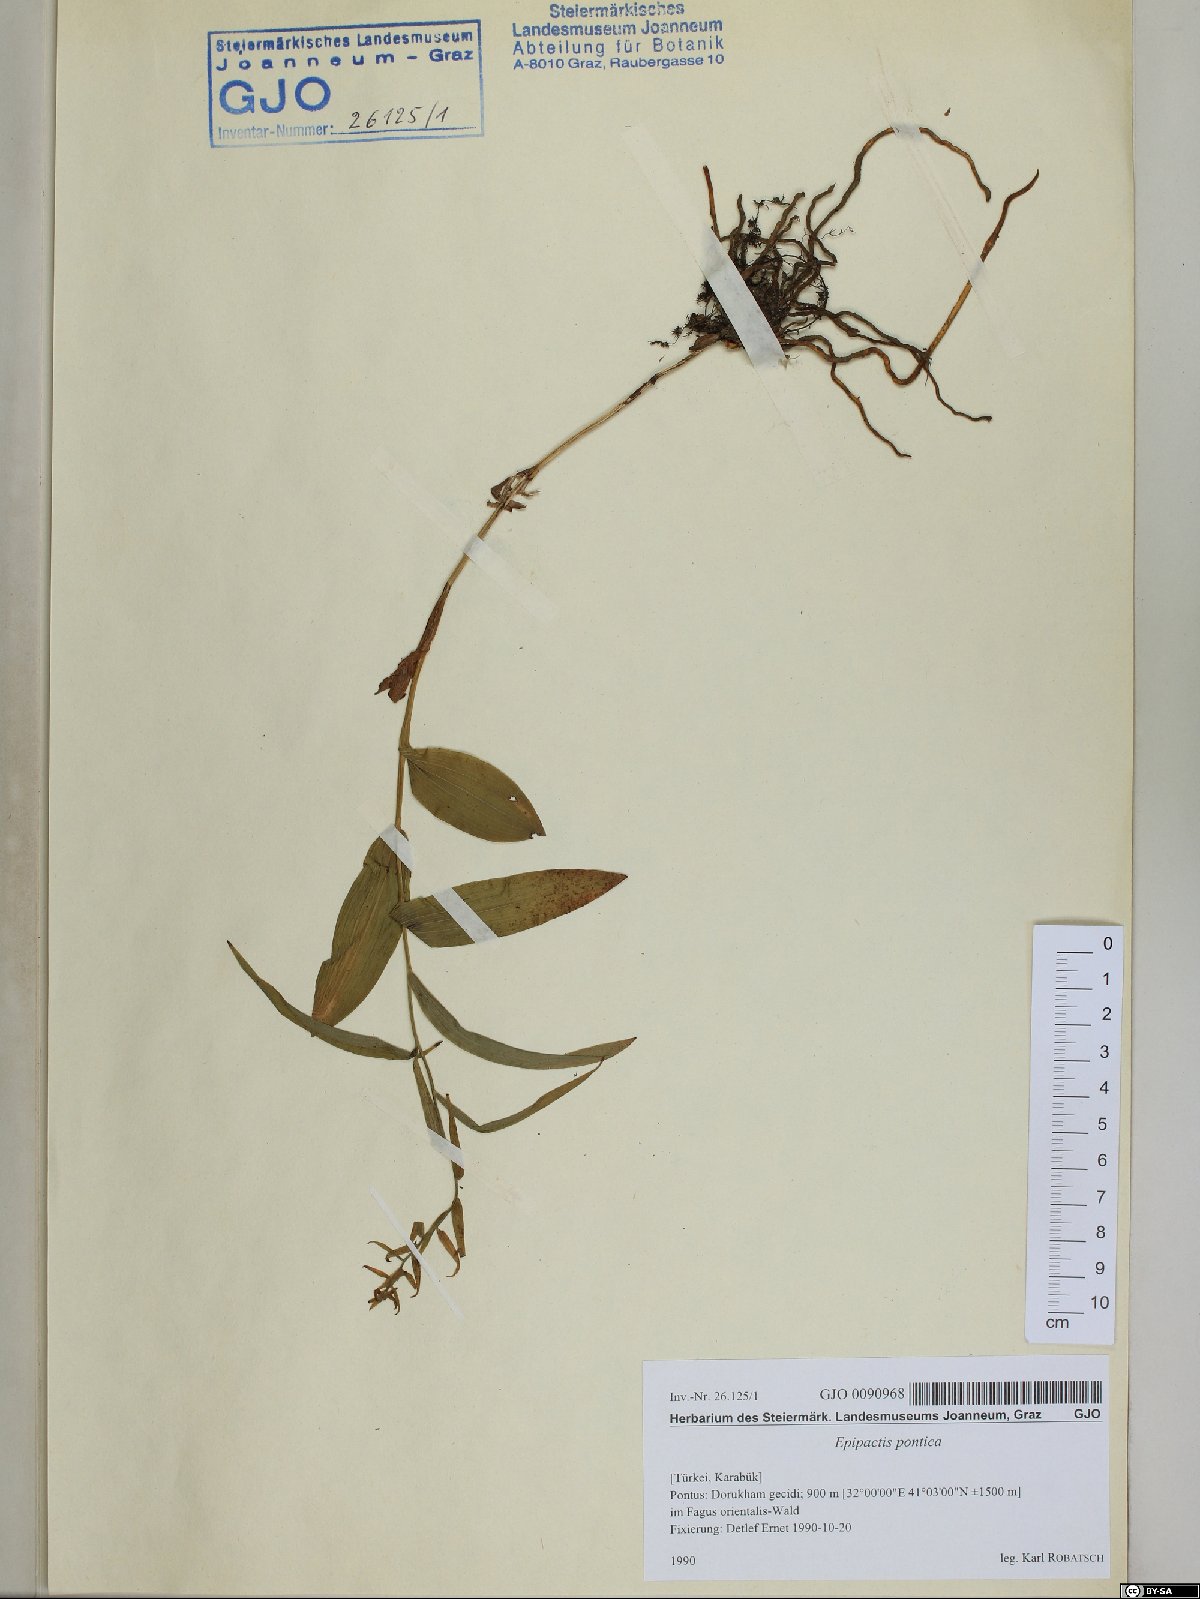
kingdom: Plantae
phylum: Tracheophyta
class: Liliopsida
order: Asparagales
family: Orchidaceae
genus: Epipactis
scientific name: Epipactis pontica
